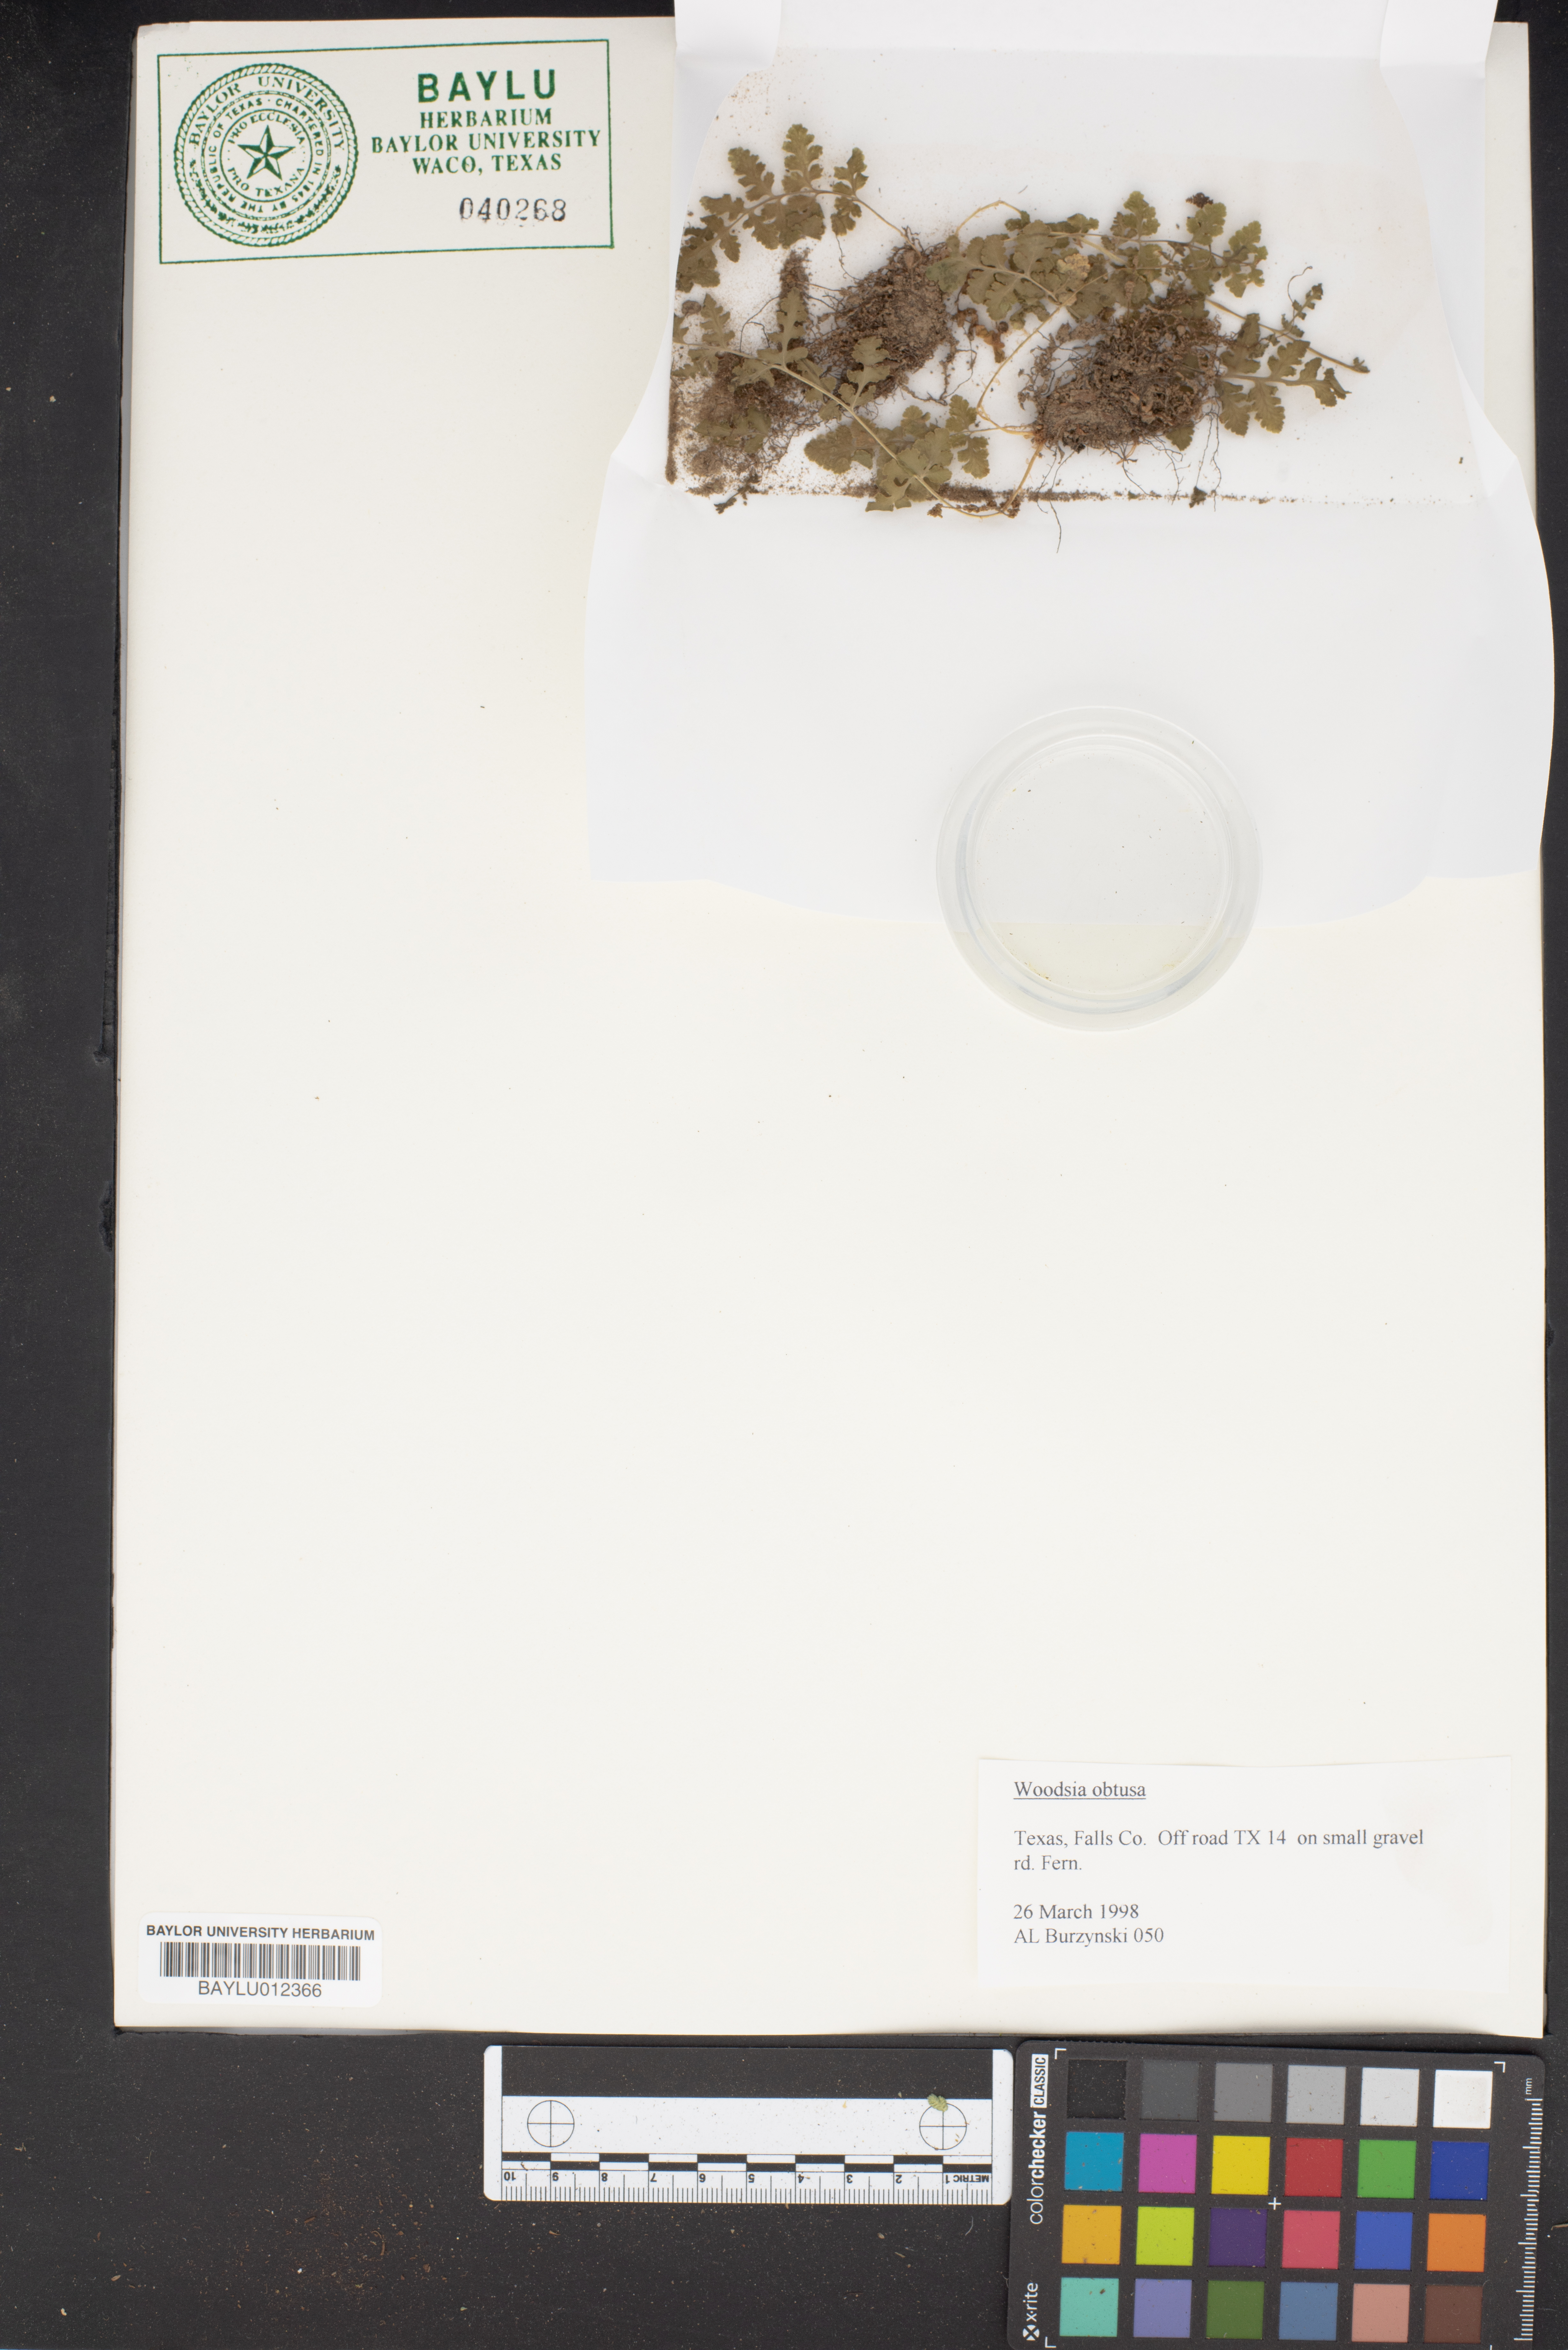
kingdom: Plantae
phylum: Tracheophyta
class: Polypodiopsida
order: Polypodiales
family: Woodsiaceae
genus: Physematium
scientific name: Physematium obtusum
